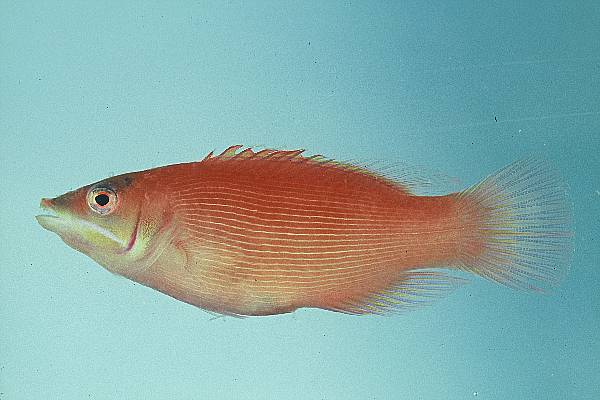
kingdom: Animalia
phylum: Chordata
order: Perciformes
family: Labridae
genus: Pseudocheilinus
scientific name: Pseudocheilinus evanidus
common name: Disappearing wrasse
